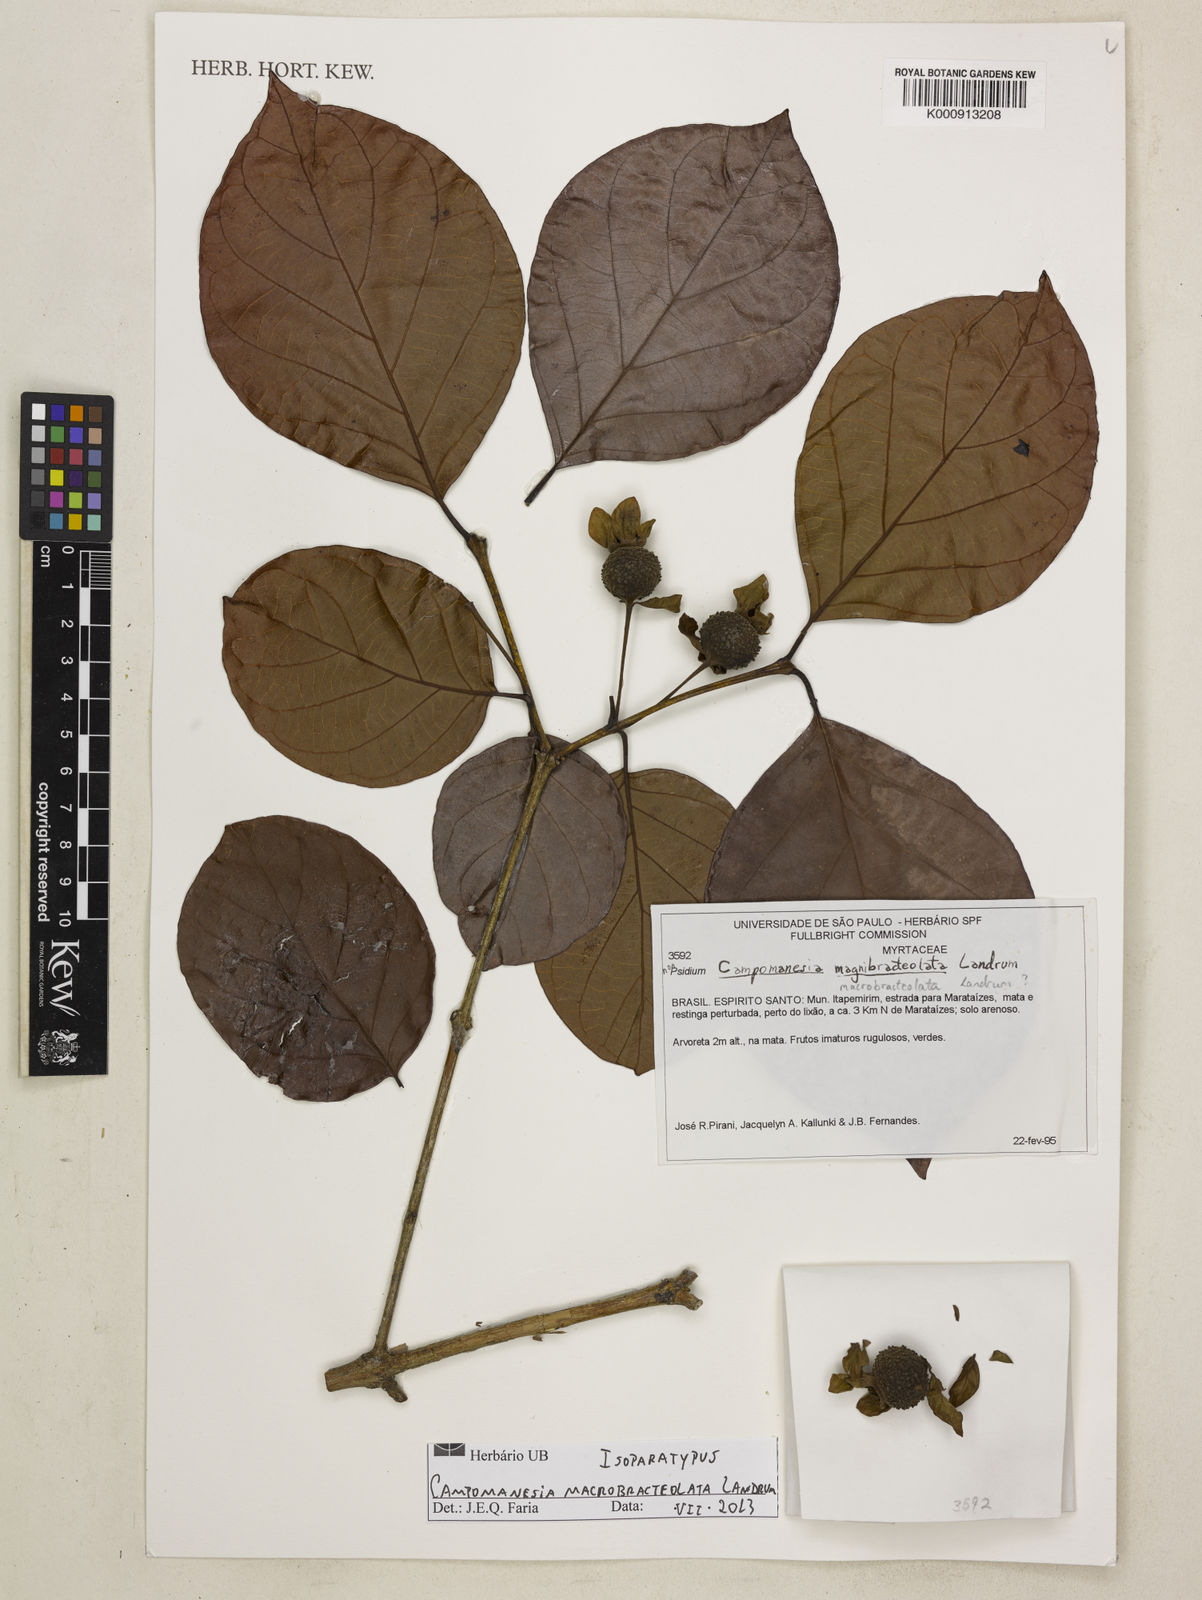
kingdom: Plantae
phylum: Tracheophyta
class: Magnoliopsida
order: Myrtales
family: Myrtaceae
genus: Campomanesia
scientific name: Campomanesia macrobracteolata
